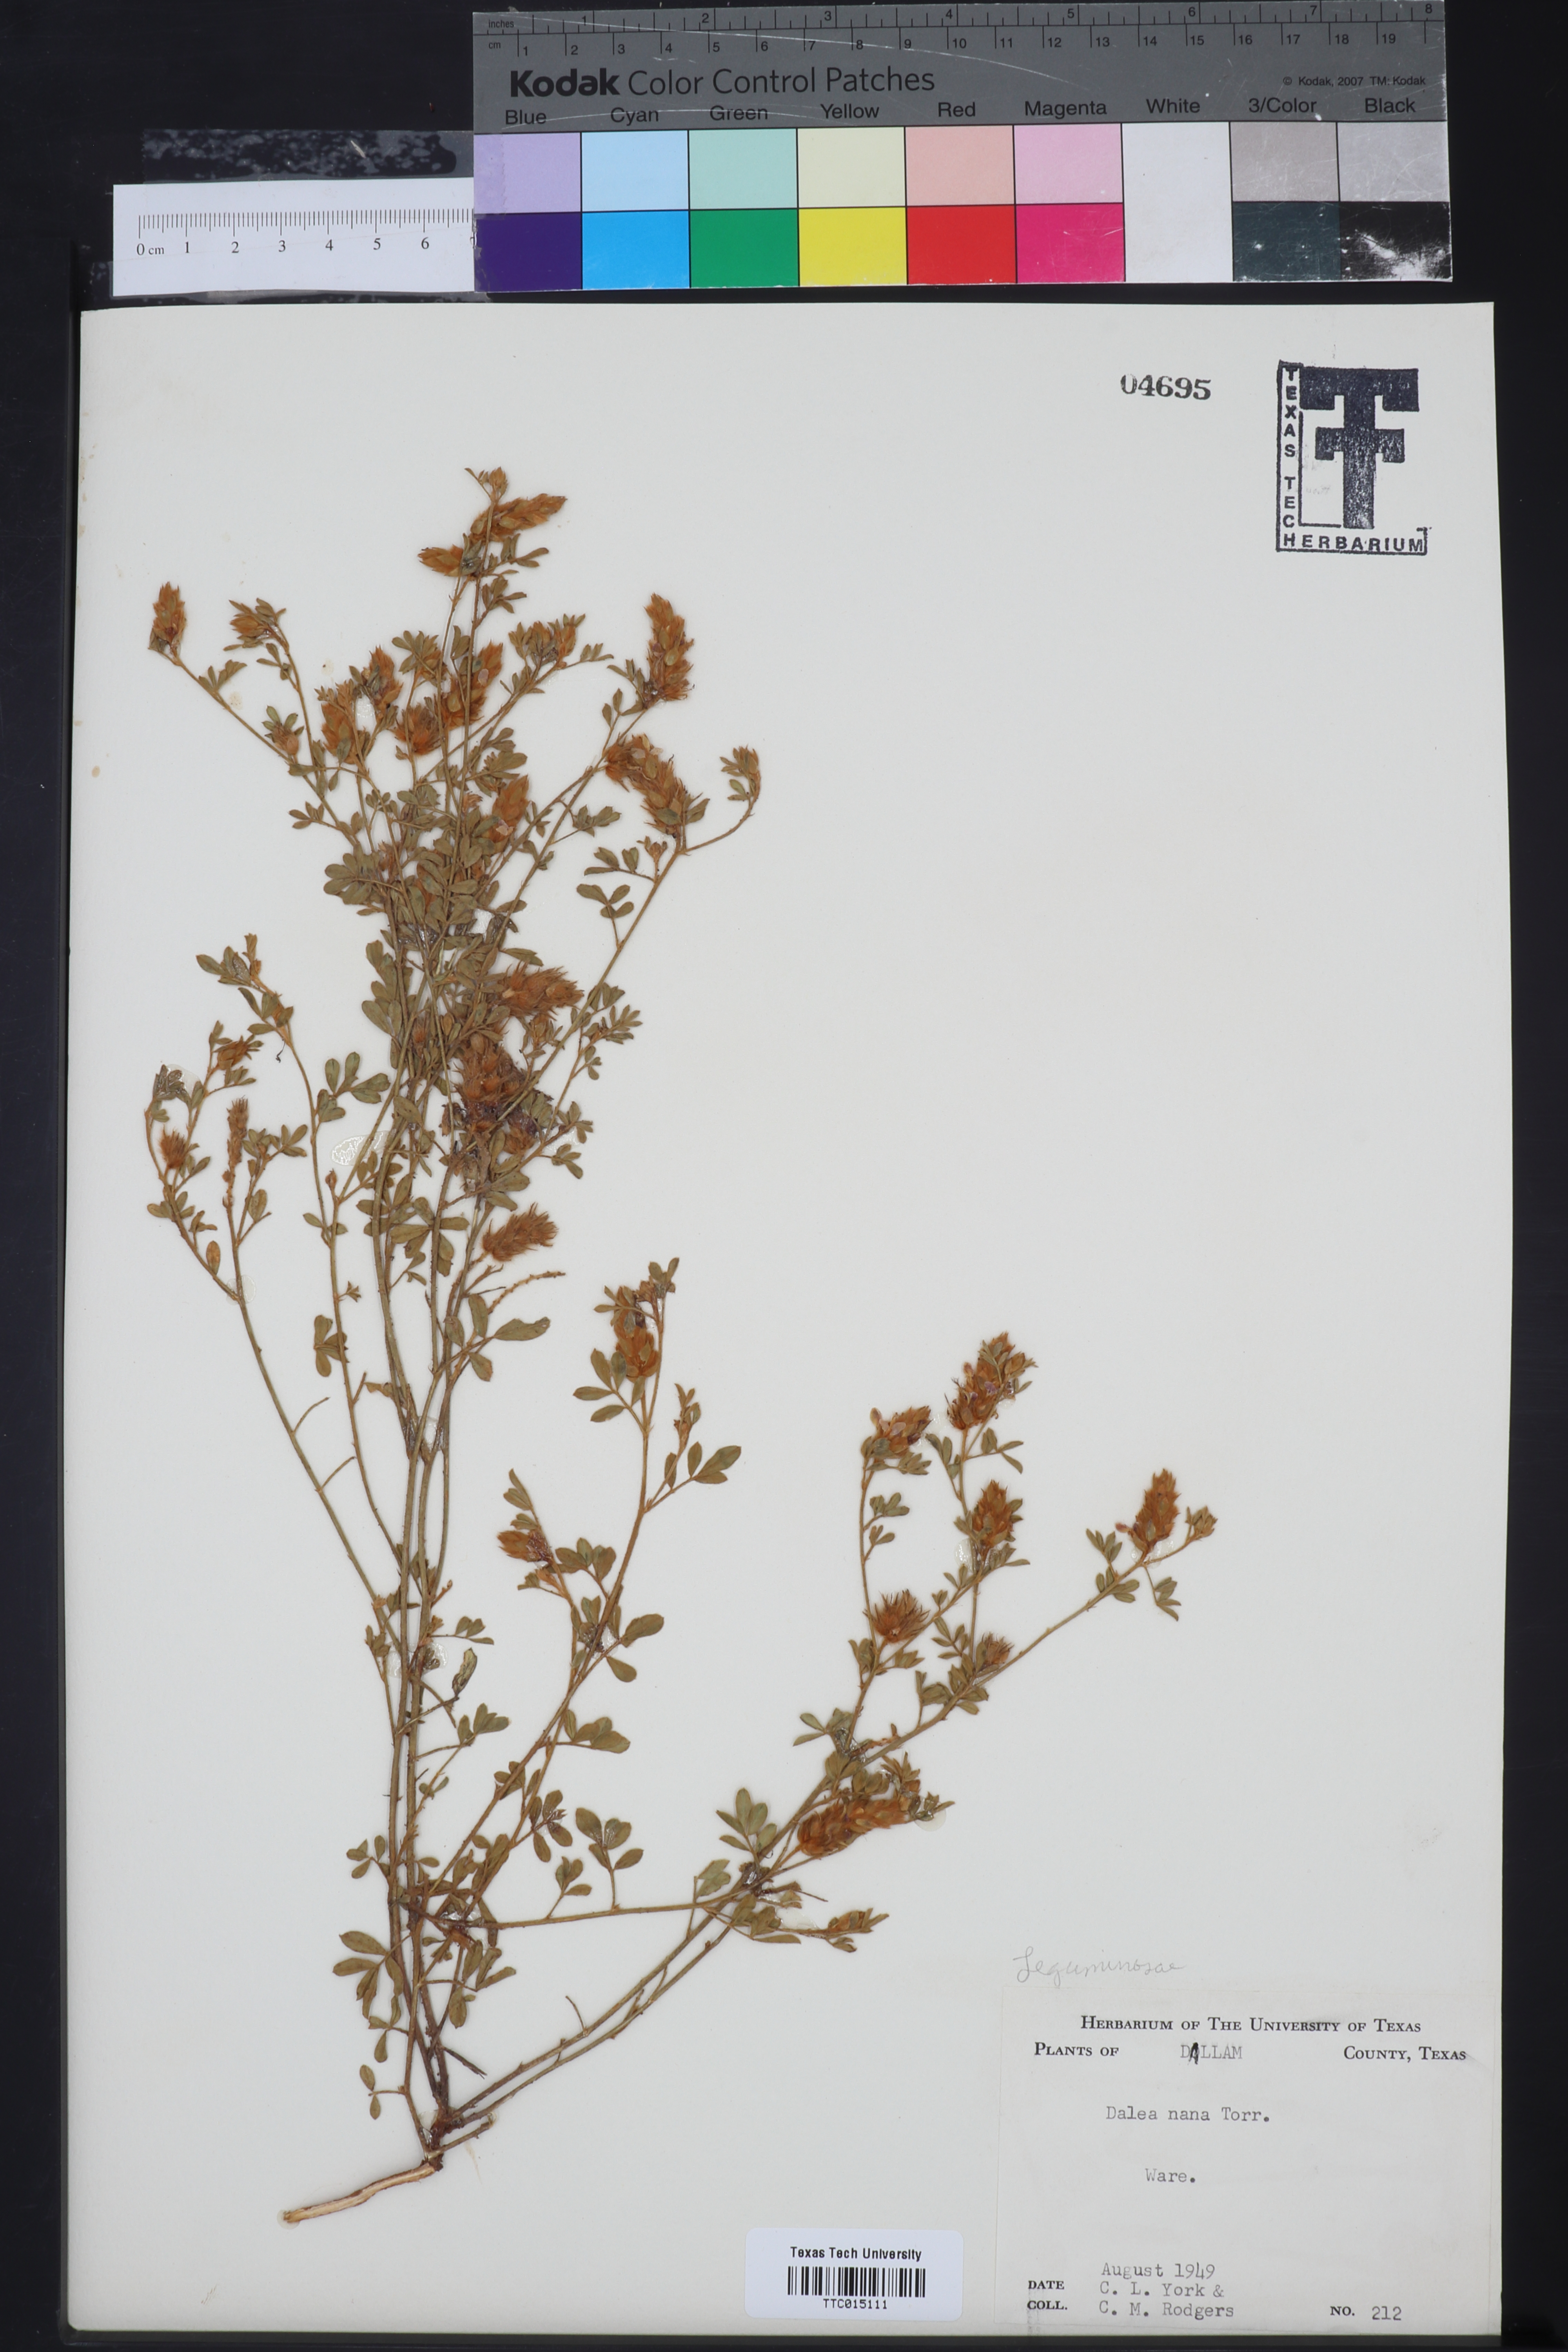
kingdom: Plantae
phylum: Tracheophyta
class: Magnoliopsida
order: Fabales
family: Fabaceae
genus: Dalea
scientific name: Dalea nana
